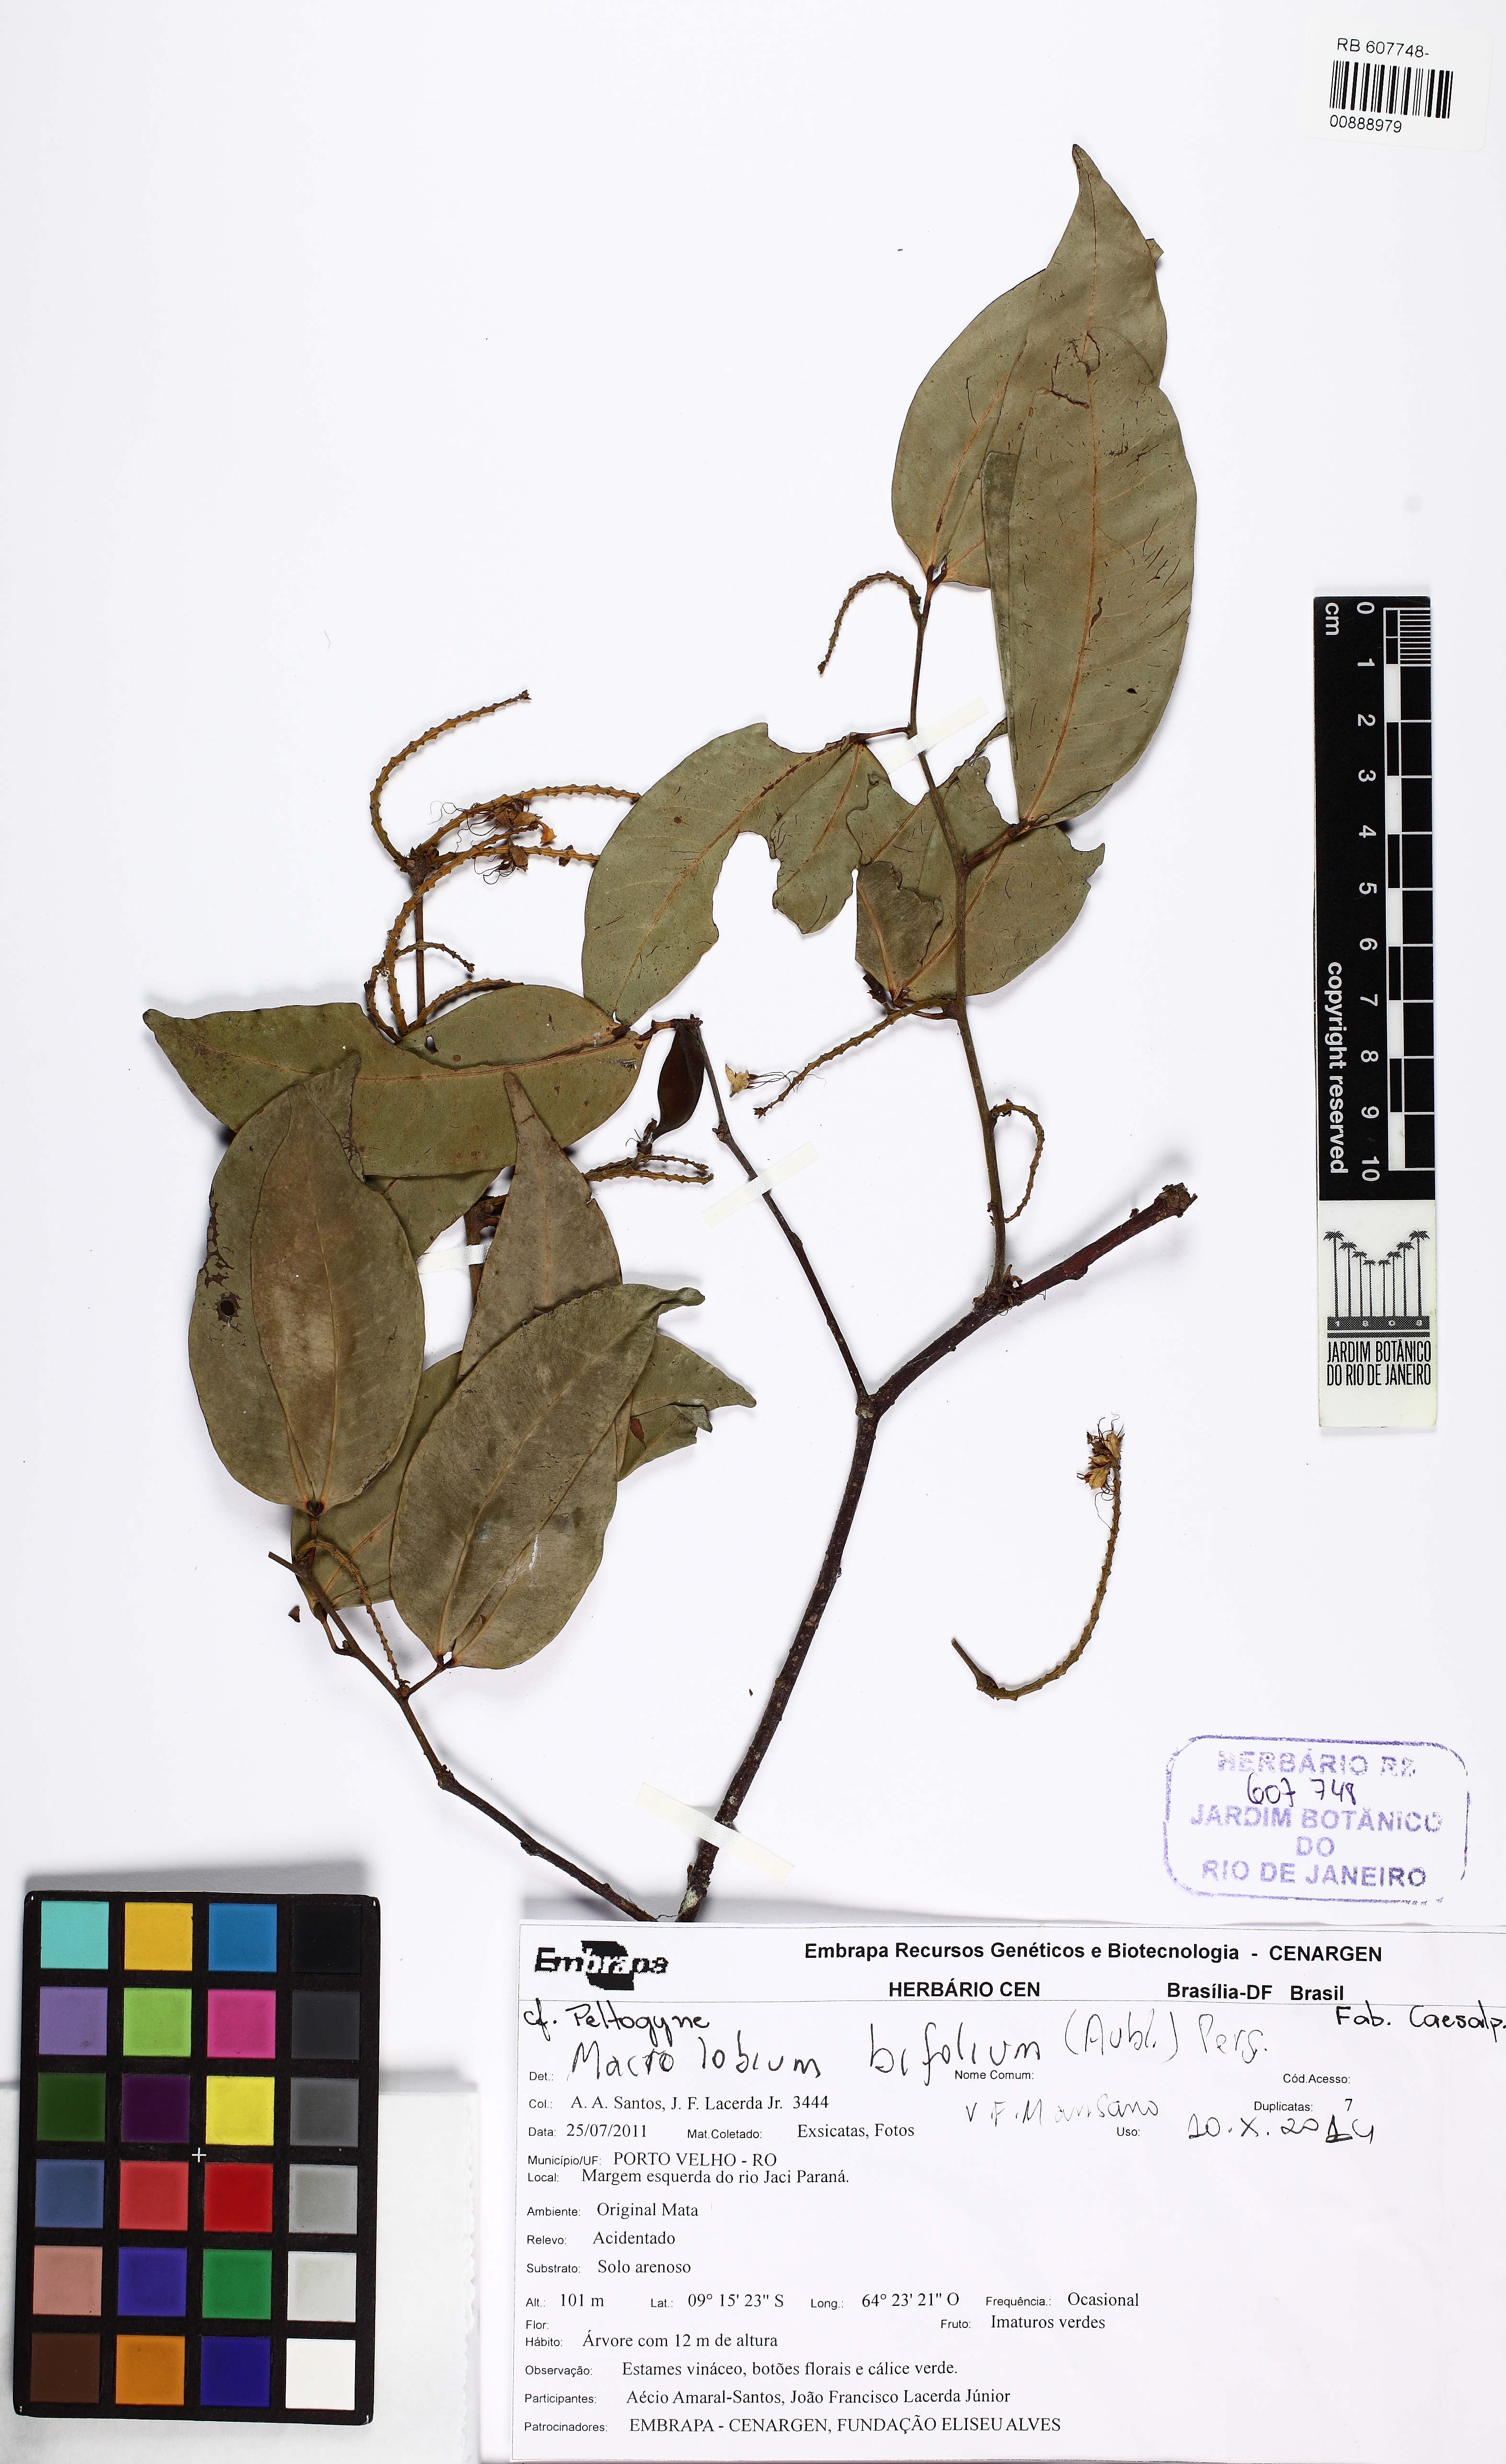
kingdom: Plantae
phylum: Tracheophyta
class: Magnoliopsida
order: Fabales
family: Fabaceae
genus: Macrolobium
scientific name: Macrolobium bifolium
